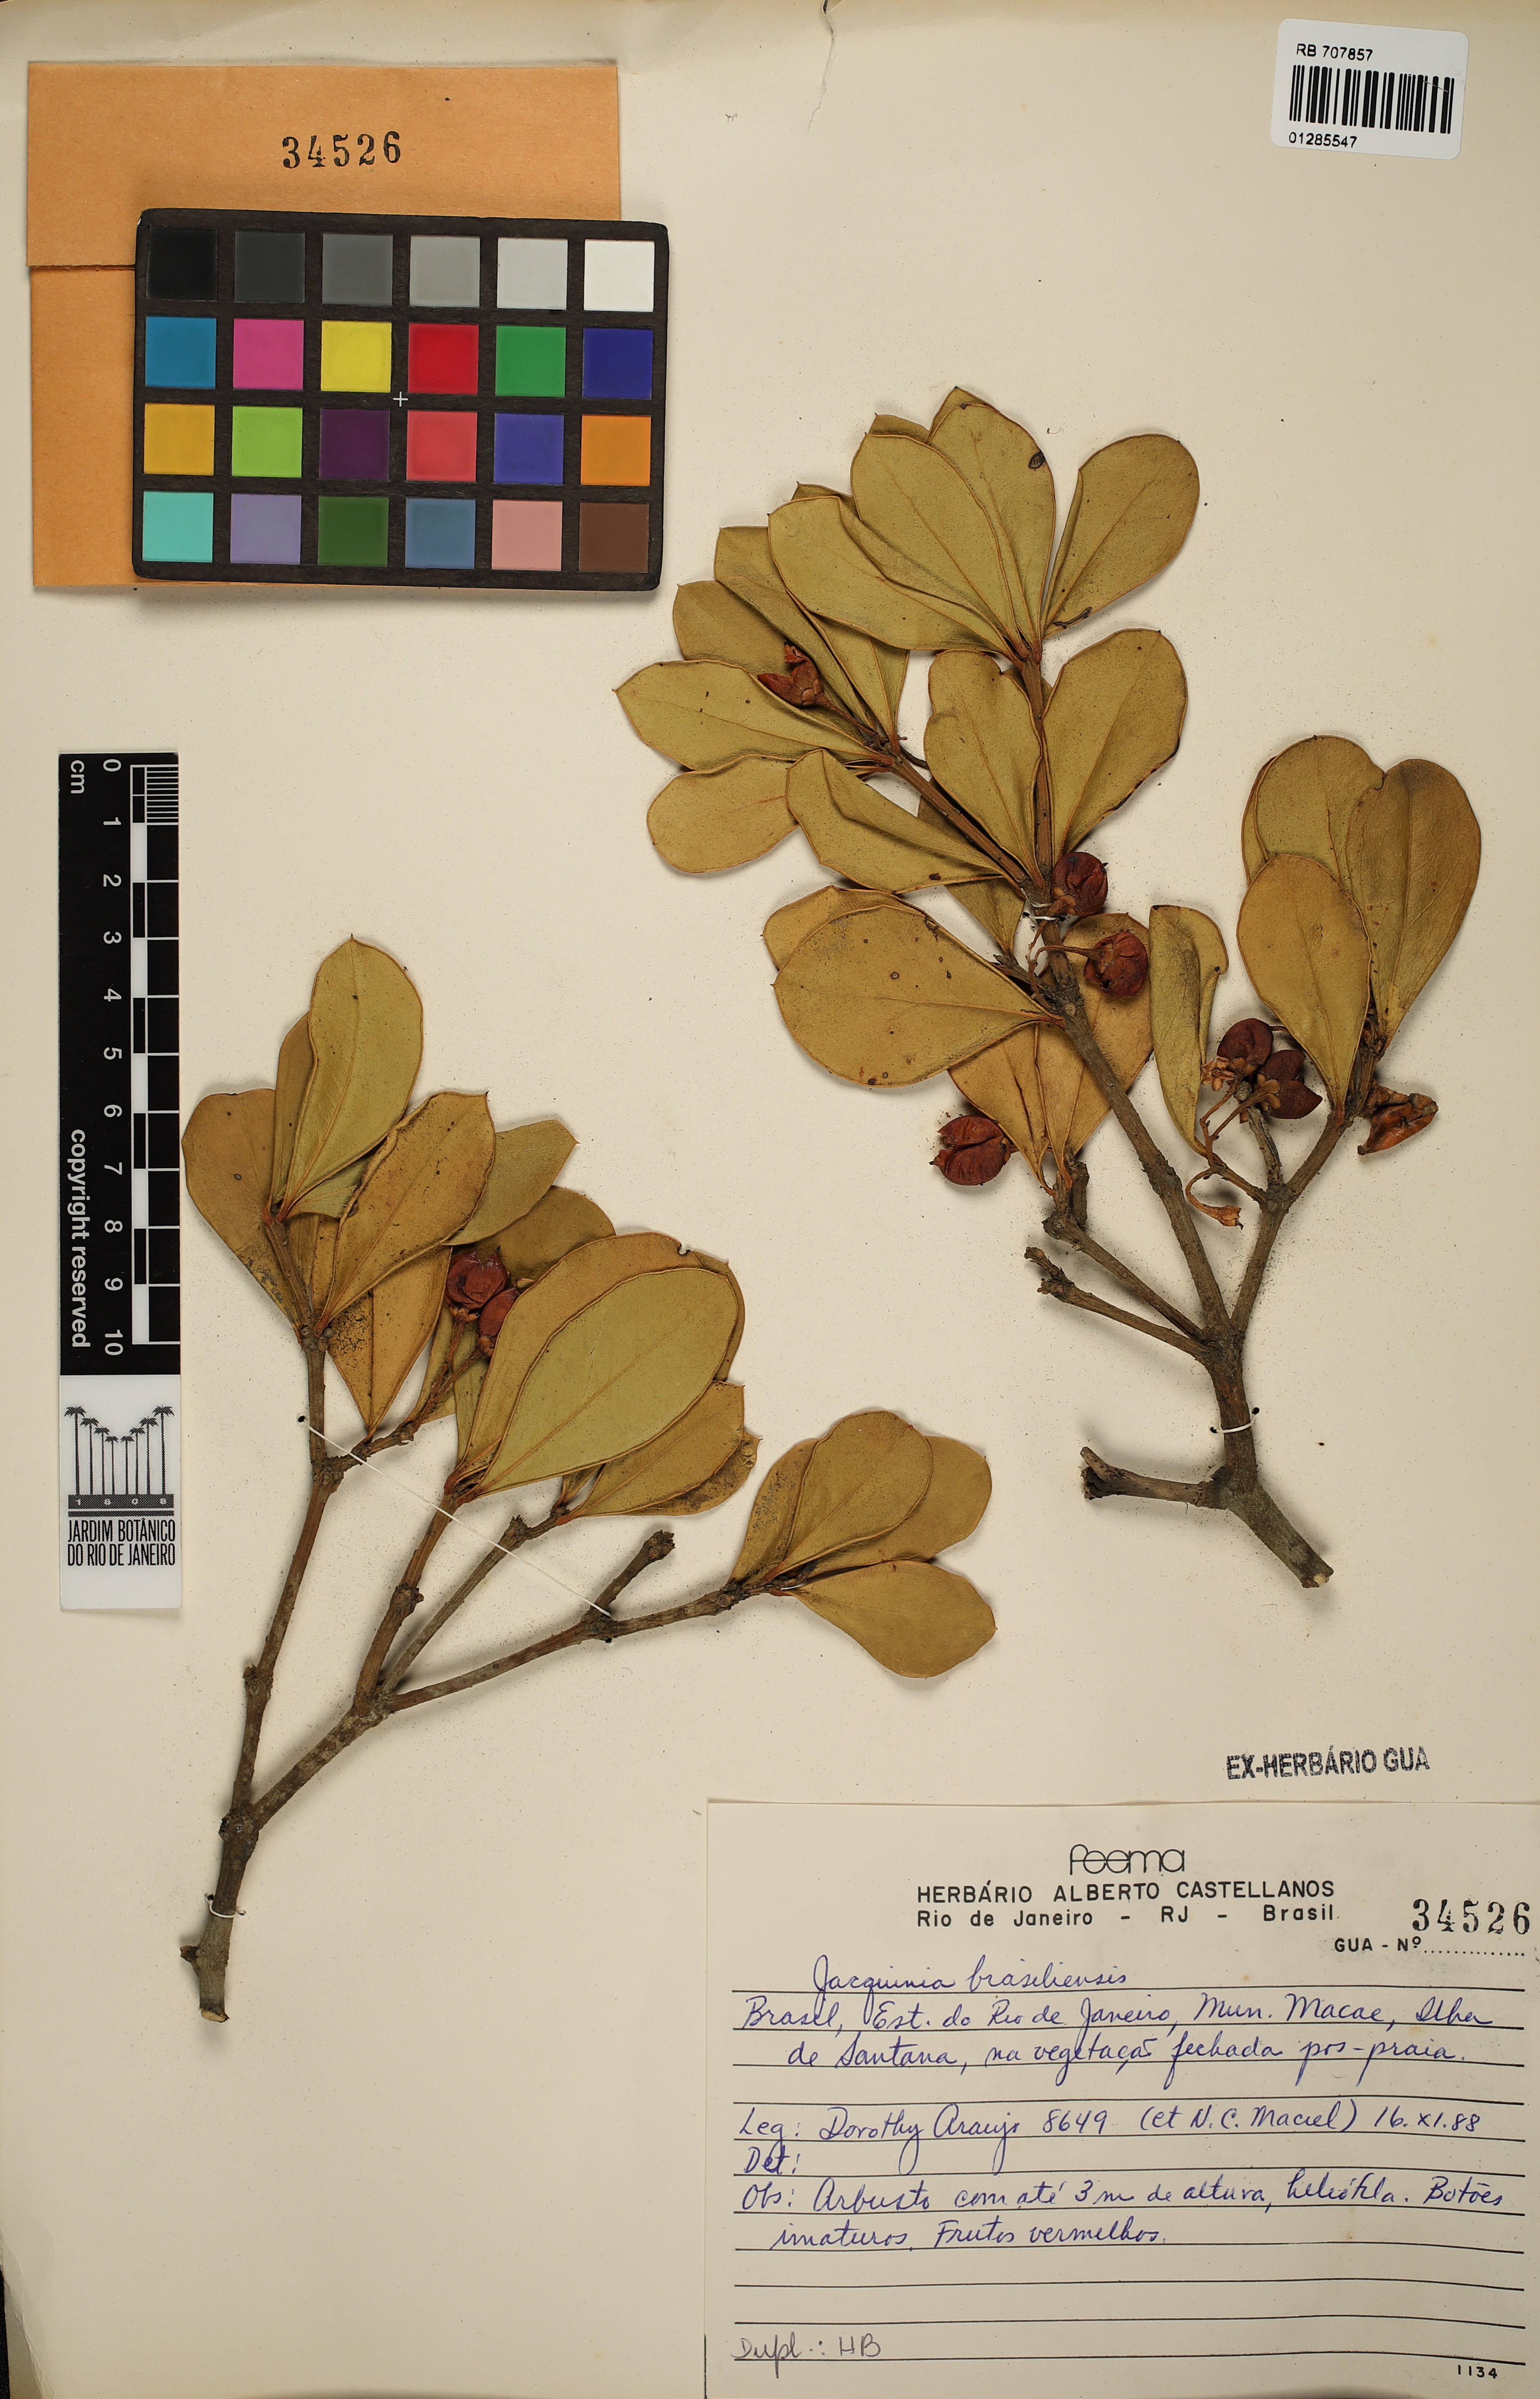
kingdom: Plantae
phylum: Tracheophyta
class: Magnoliopsida
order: Ericales
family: Primulaceae
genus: Jacquinia
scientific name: Jacquinia armillaris
